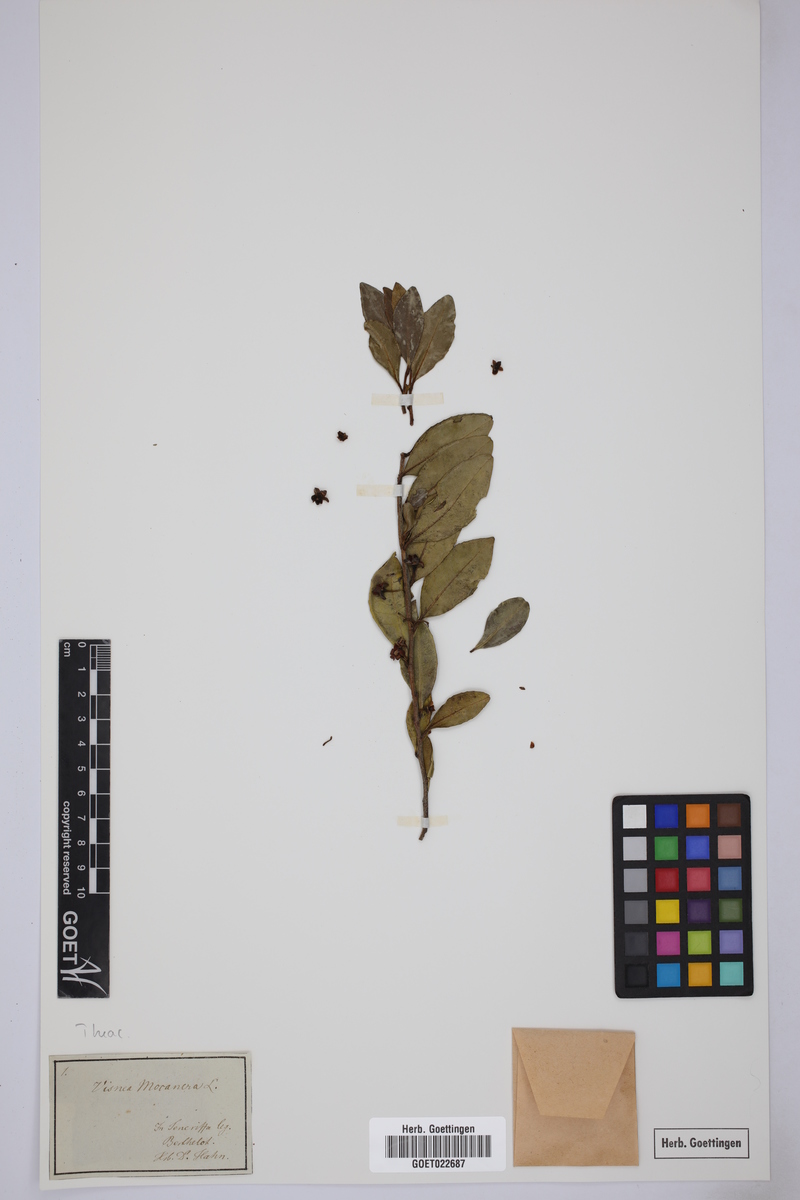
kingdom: Plantae
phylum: Tracheophyta
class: Magnoliopsida
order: Ericales
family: Pentaphylacaceae
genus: Visnea
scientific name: Visnea mocanera
